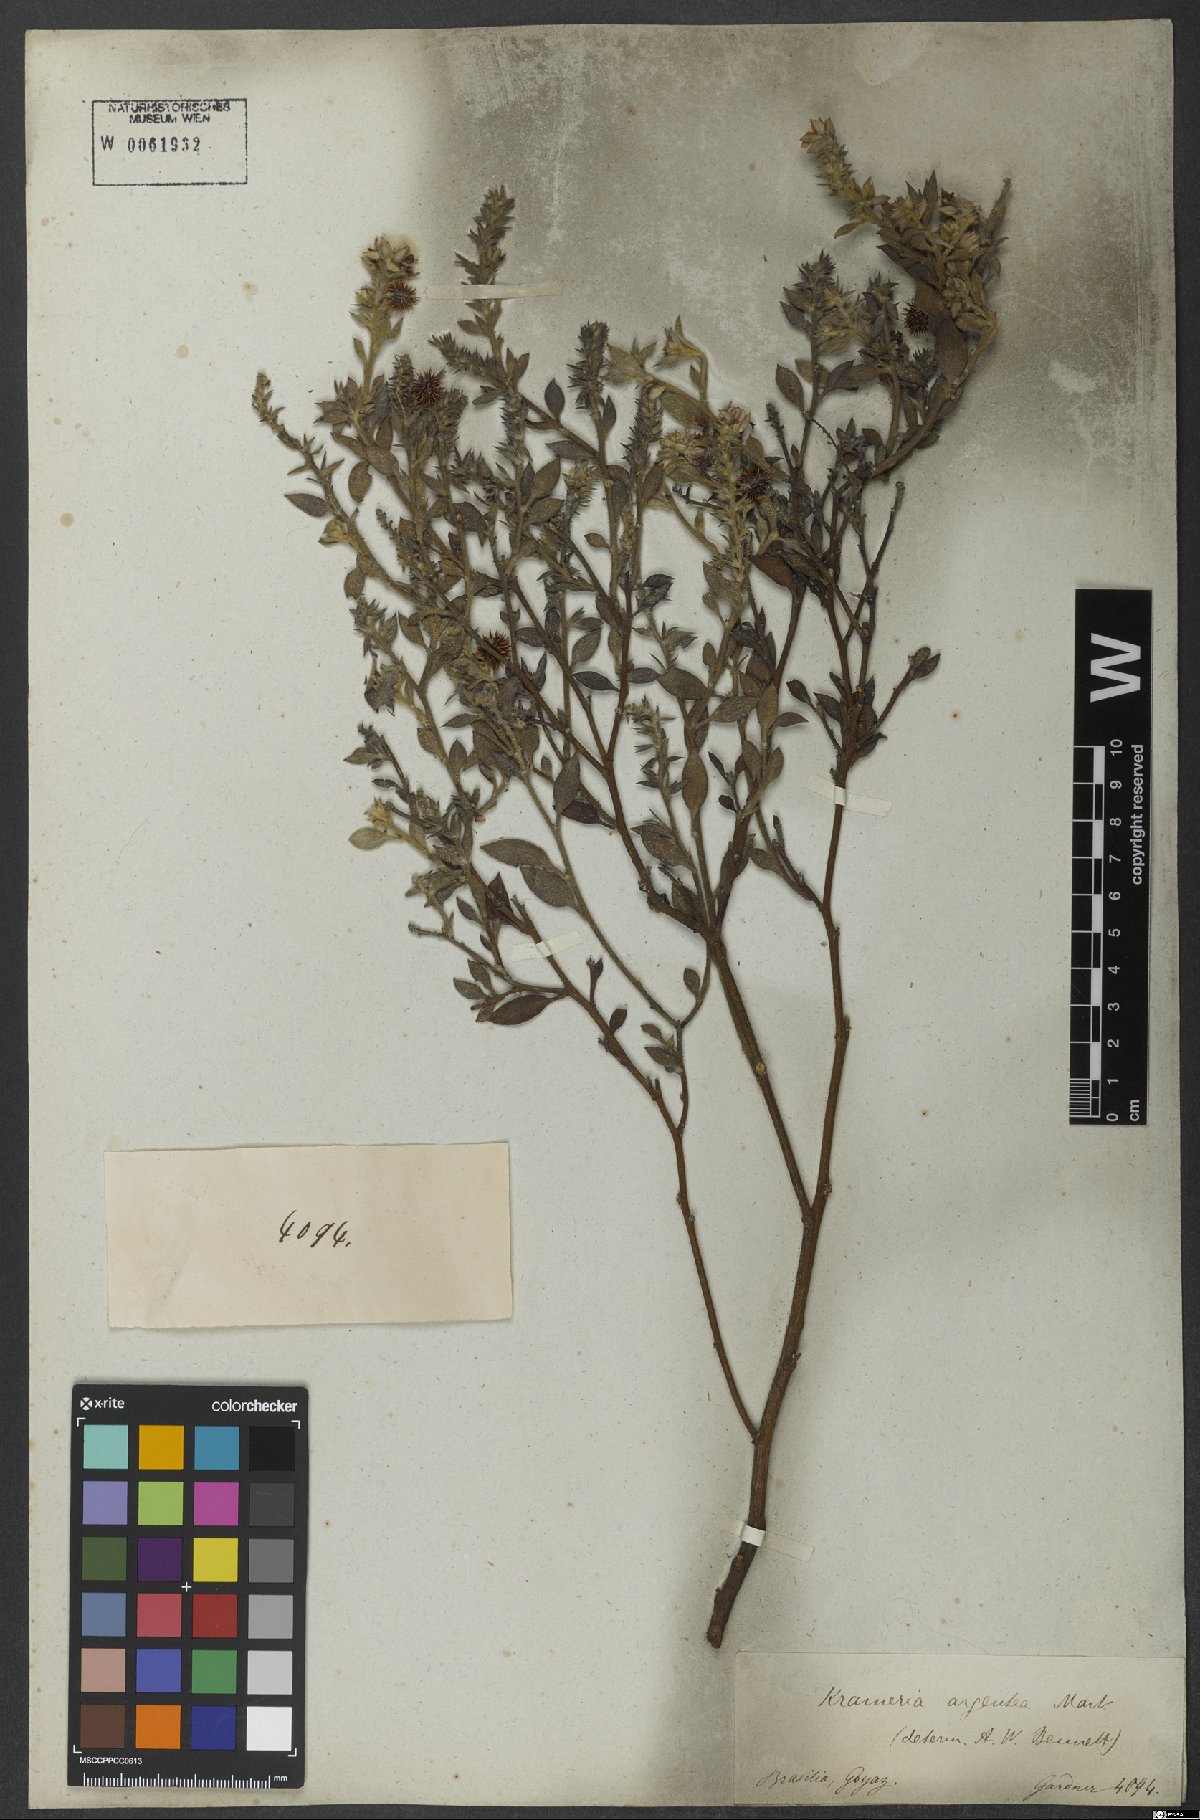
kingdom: Plantae
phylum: Tracheophyta
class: Magnoliopsida
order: Zygophyllales
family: Krameriaceae
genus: Krameria
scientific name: Krameria argentea
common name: Brown-rhatany,-ceará-rhatany
